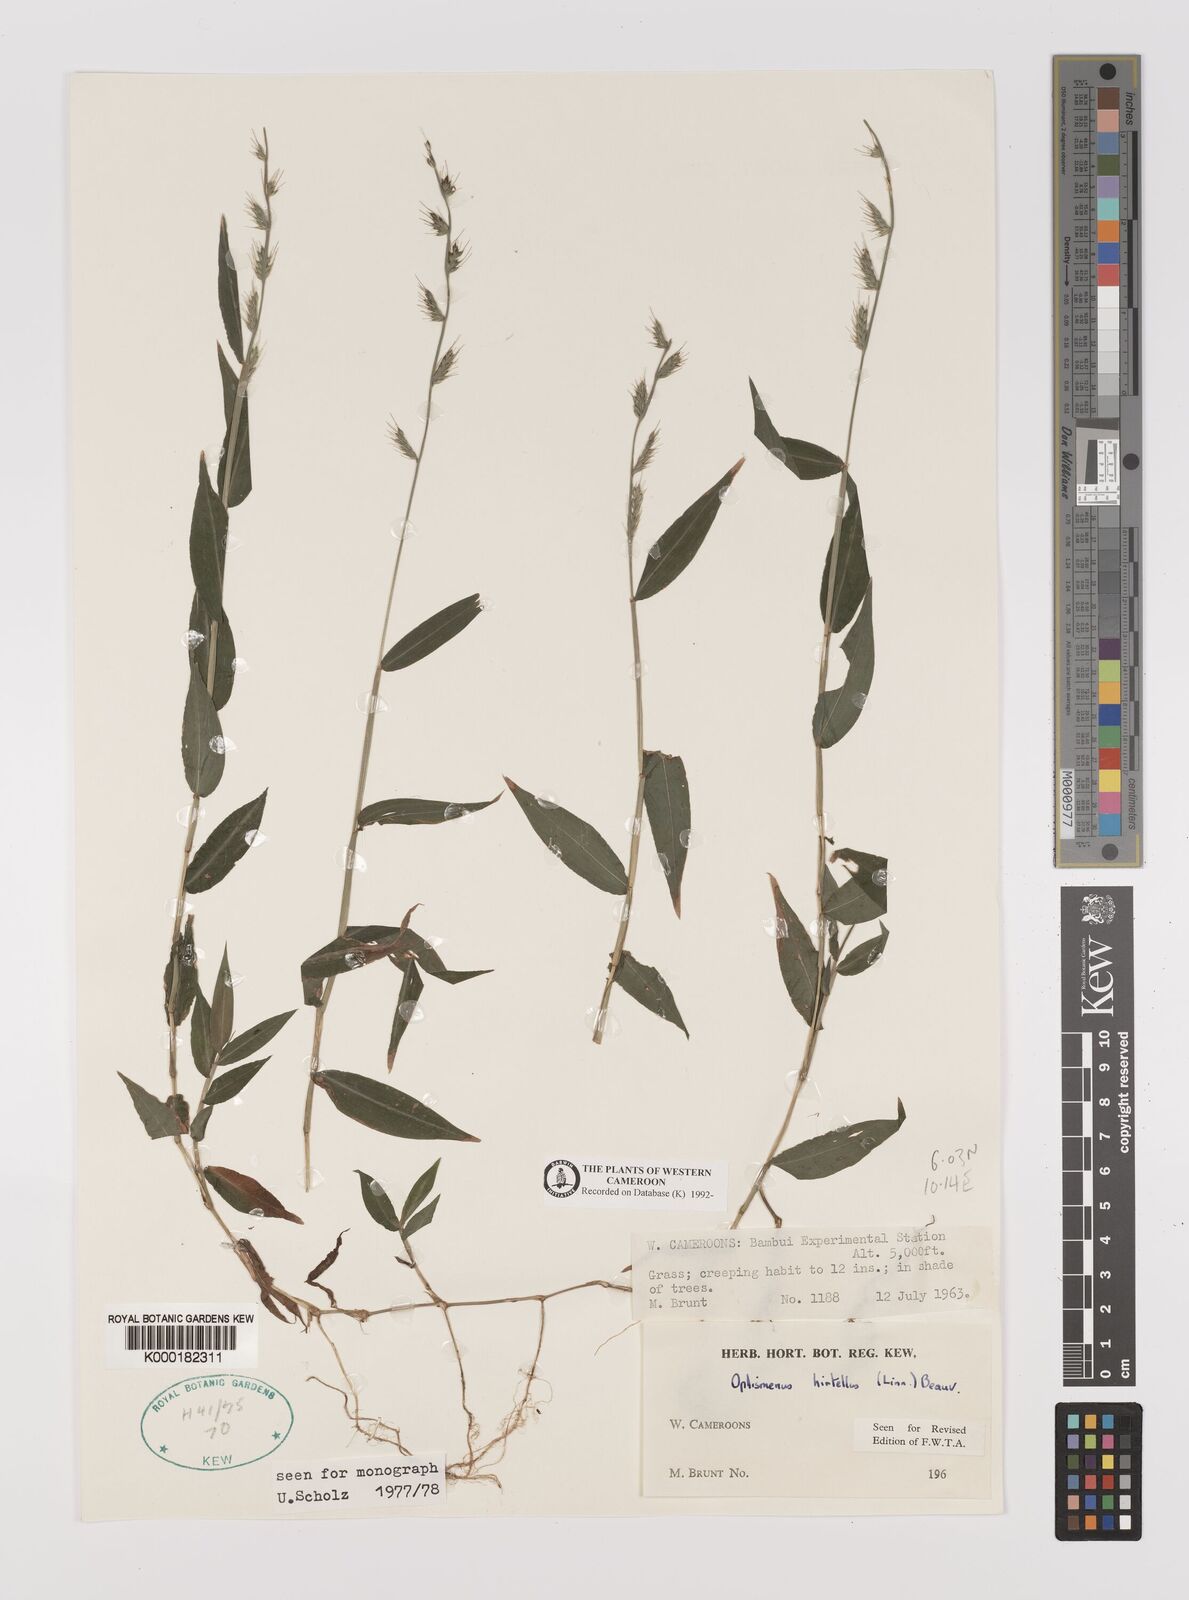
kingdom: Plantae
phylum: Tracheophyta
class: Liliopsida
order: Poales
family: Poaceae
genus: Oplismenus
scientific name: Oplismenus hirtellus
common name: Basketgrass
